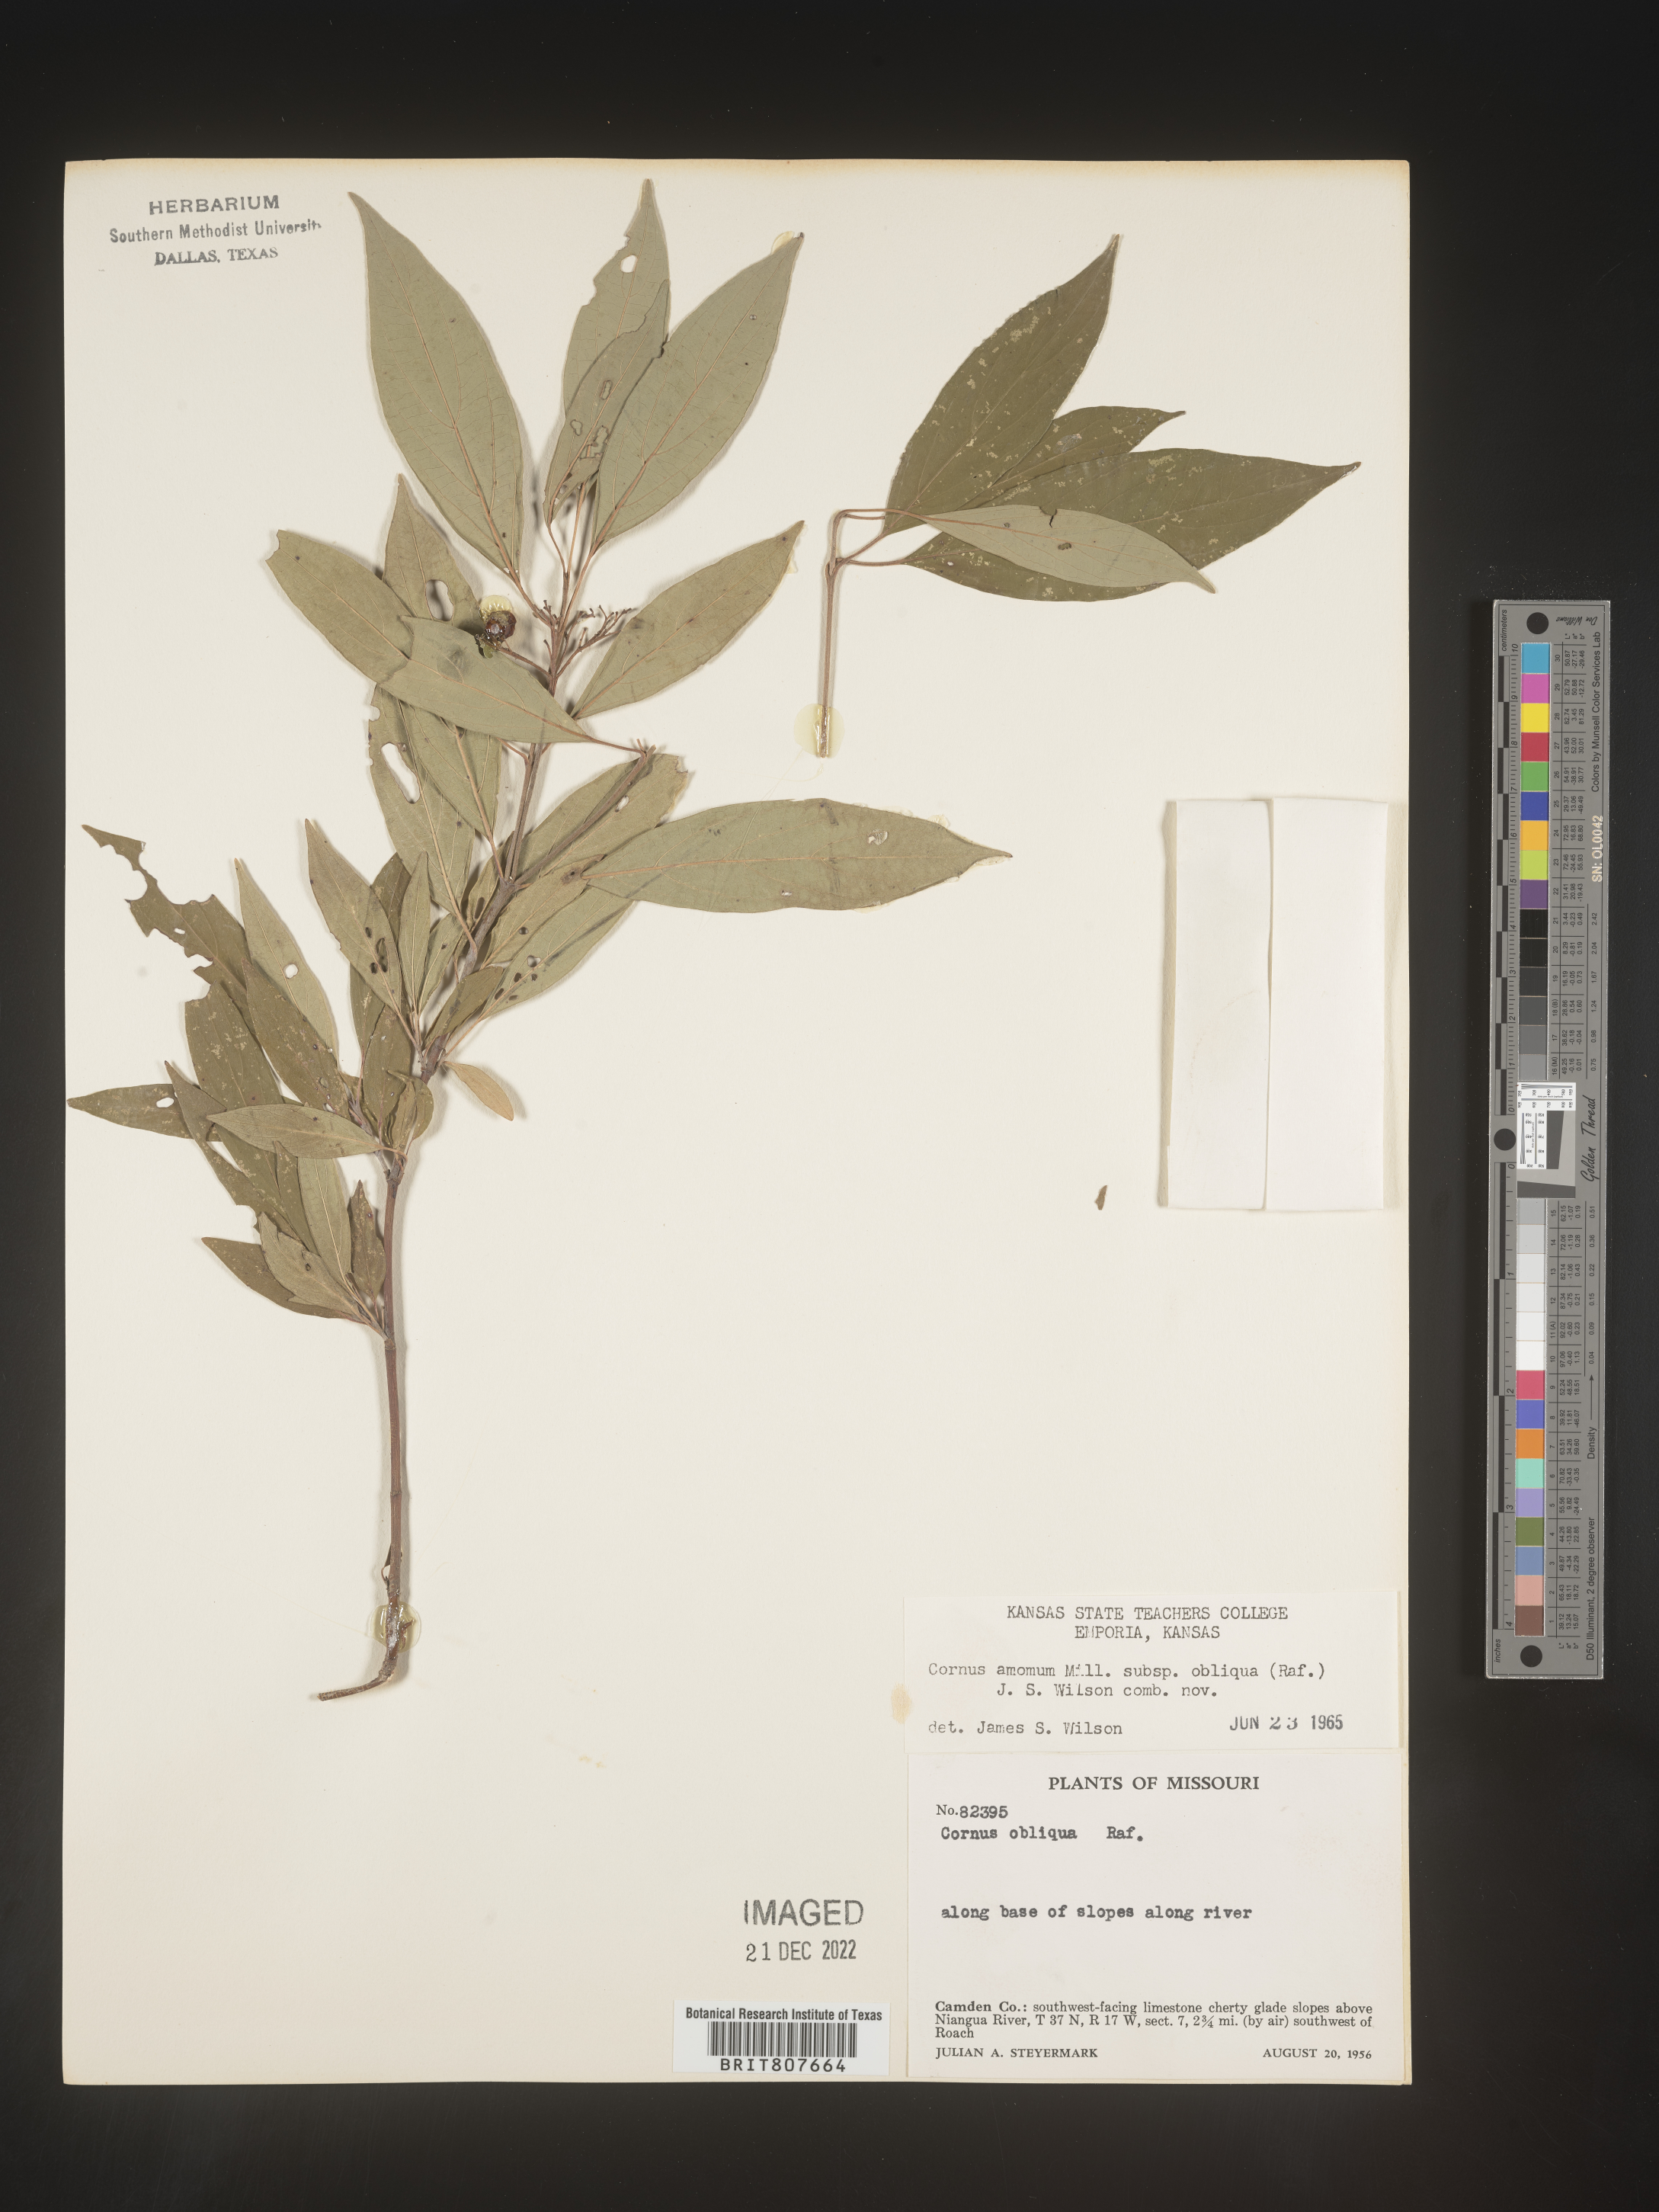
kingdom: Plantae
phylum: Tracheophyta
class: Magnoliopsida
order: Cornales
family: Cornaceae
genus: Cornus
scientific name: Cornus obliqua
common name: Pale dogwood
